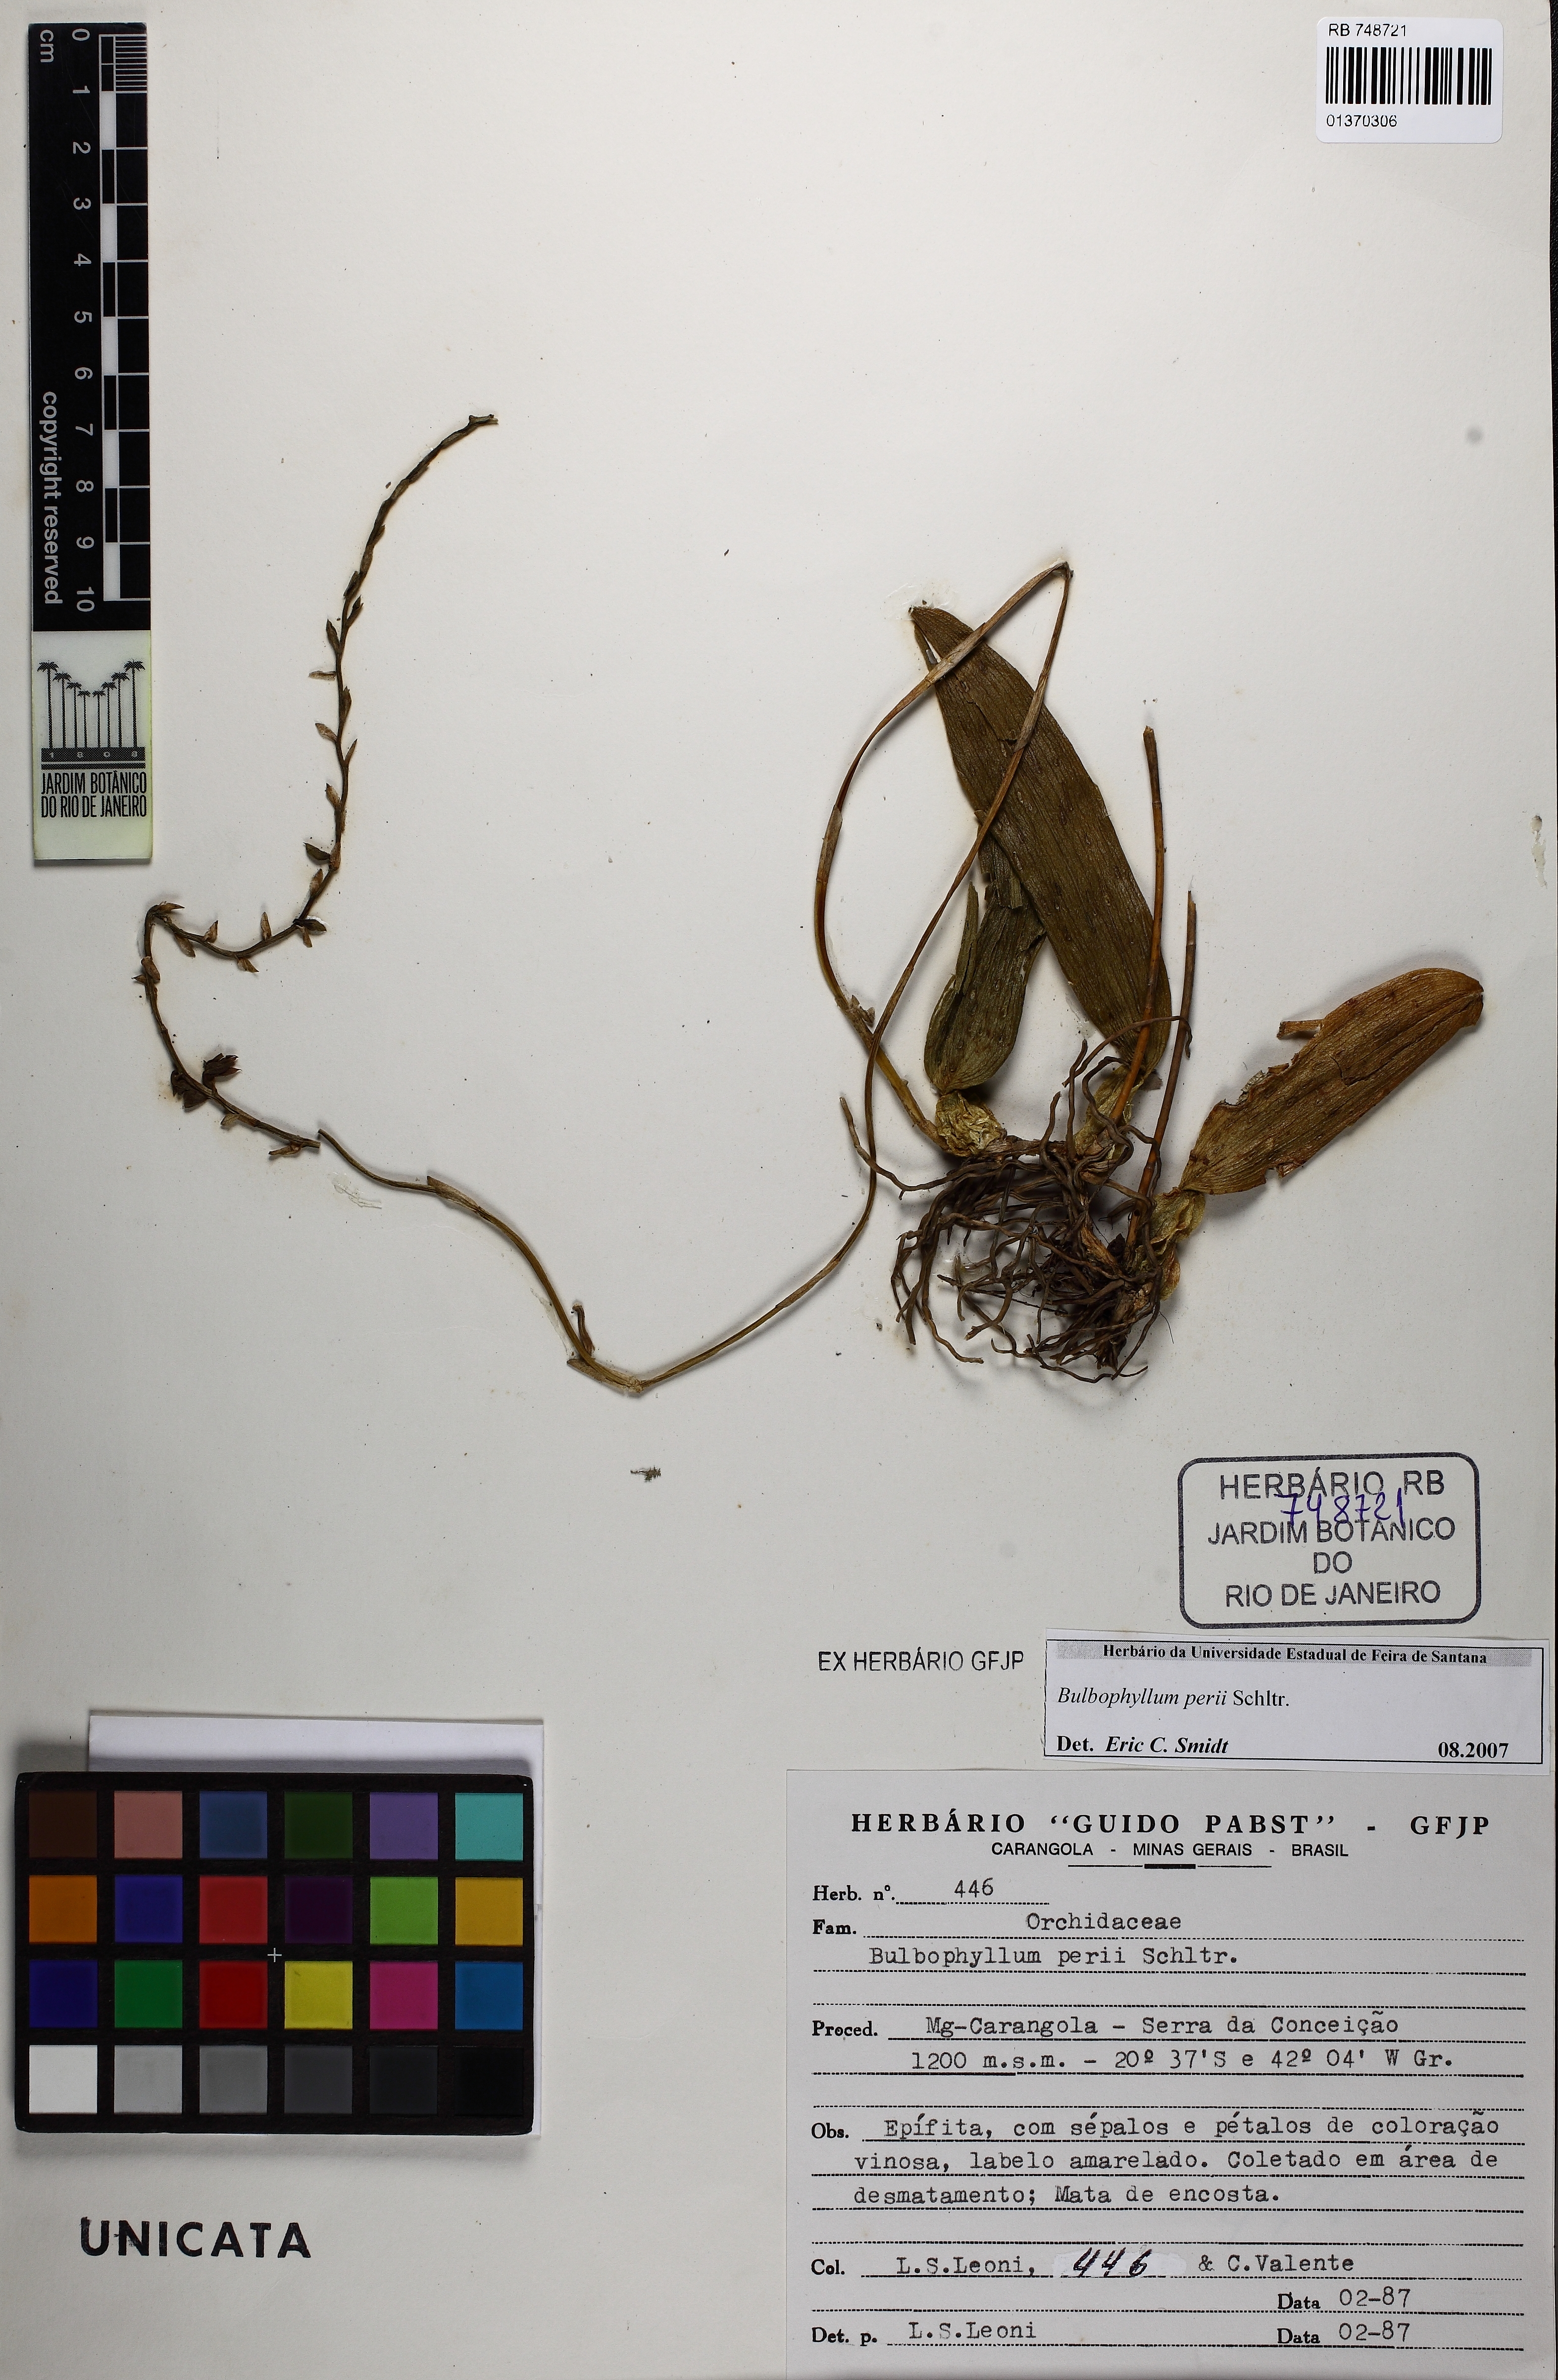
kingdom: Plantae
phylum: Tracheophyta
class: Liliopsida
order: Asparagales
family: Orchidaceae
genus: Bulbophyllum
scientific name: Bulbophyllum perii
